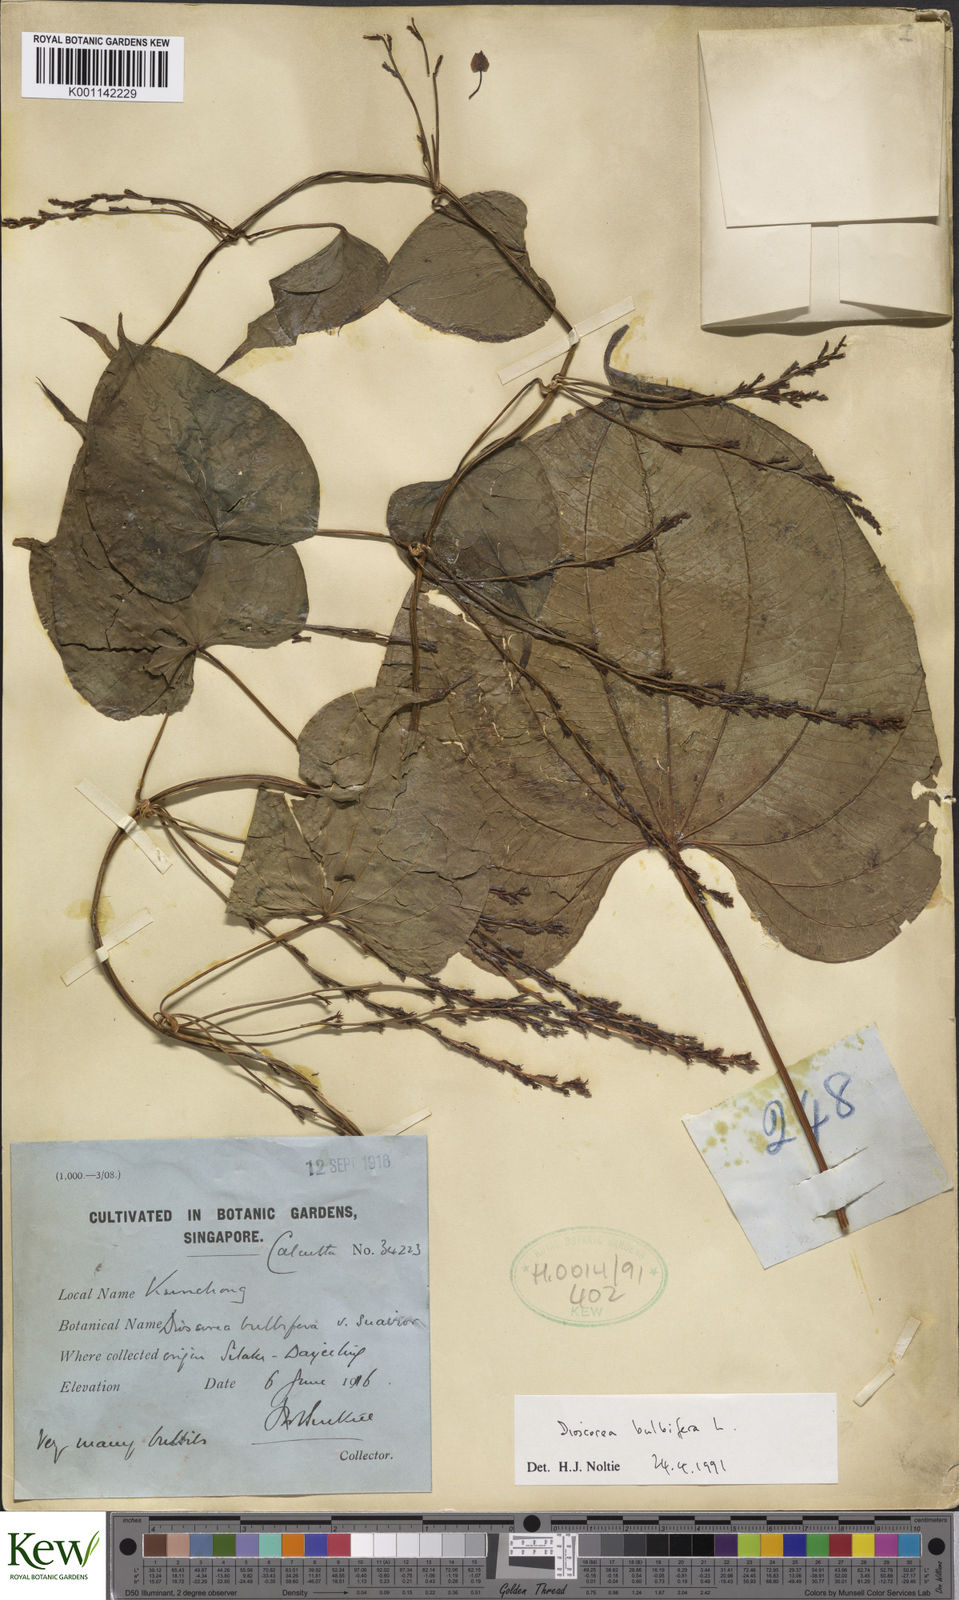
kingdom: Plantae
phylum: Tracheophyta
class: Liliopsida
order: Dioscoreales
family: Dioscoreaceae
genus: Dioscorea
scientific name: Dioscorea bulbifera
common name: Air yam
